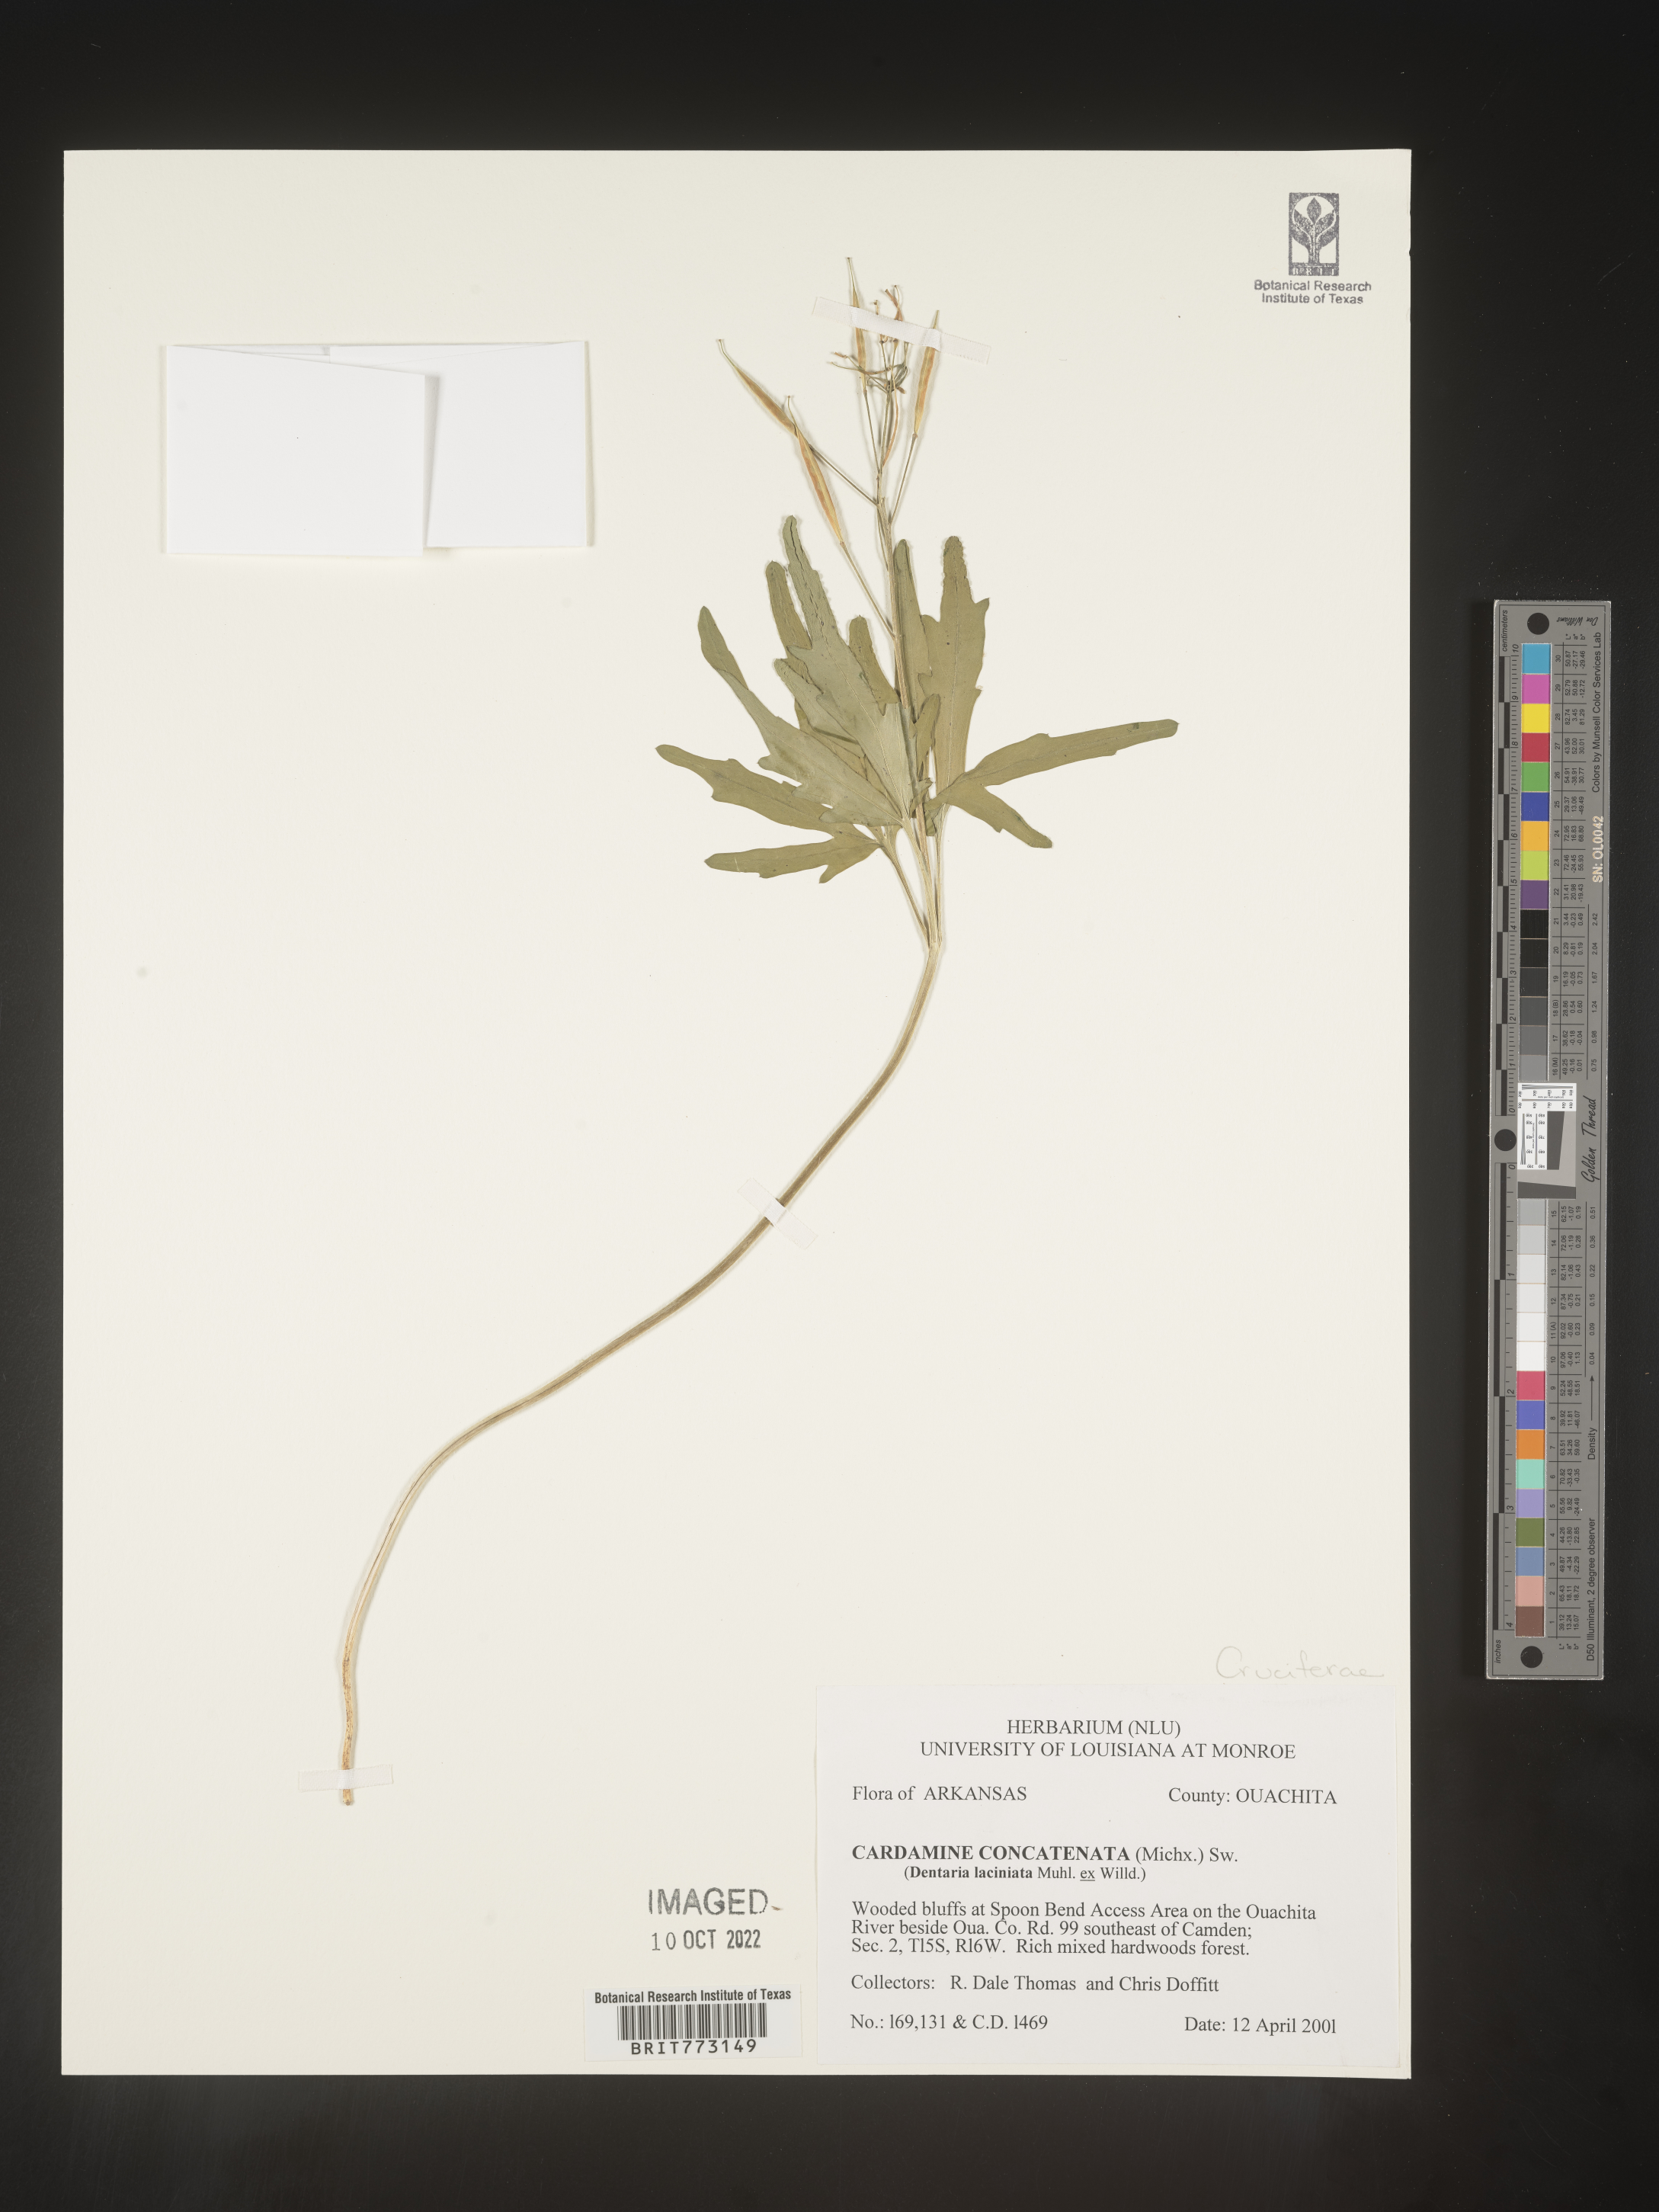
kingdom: Plantae
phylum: Tracheophyta
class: Magnoliopsida
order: Brassicales
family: Brassicaceae
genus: Cardamine
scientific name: Cardamine
